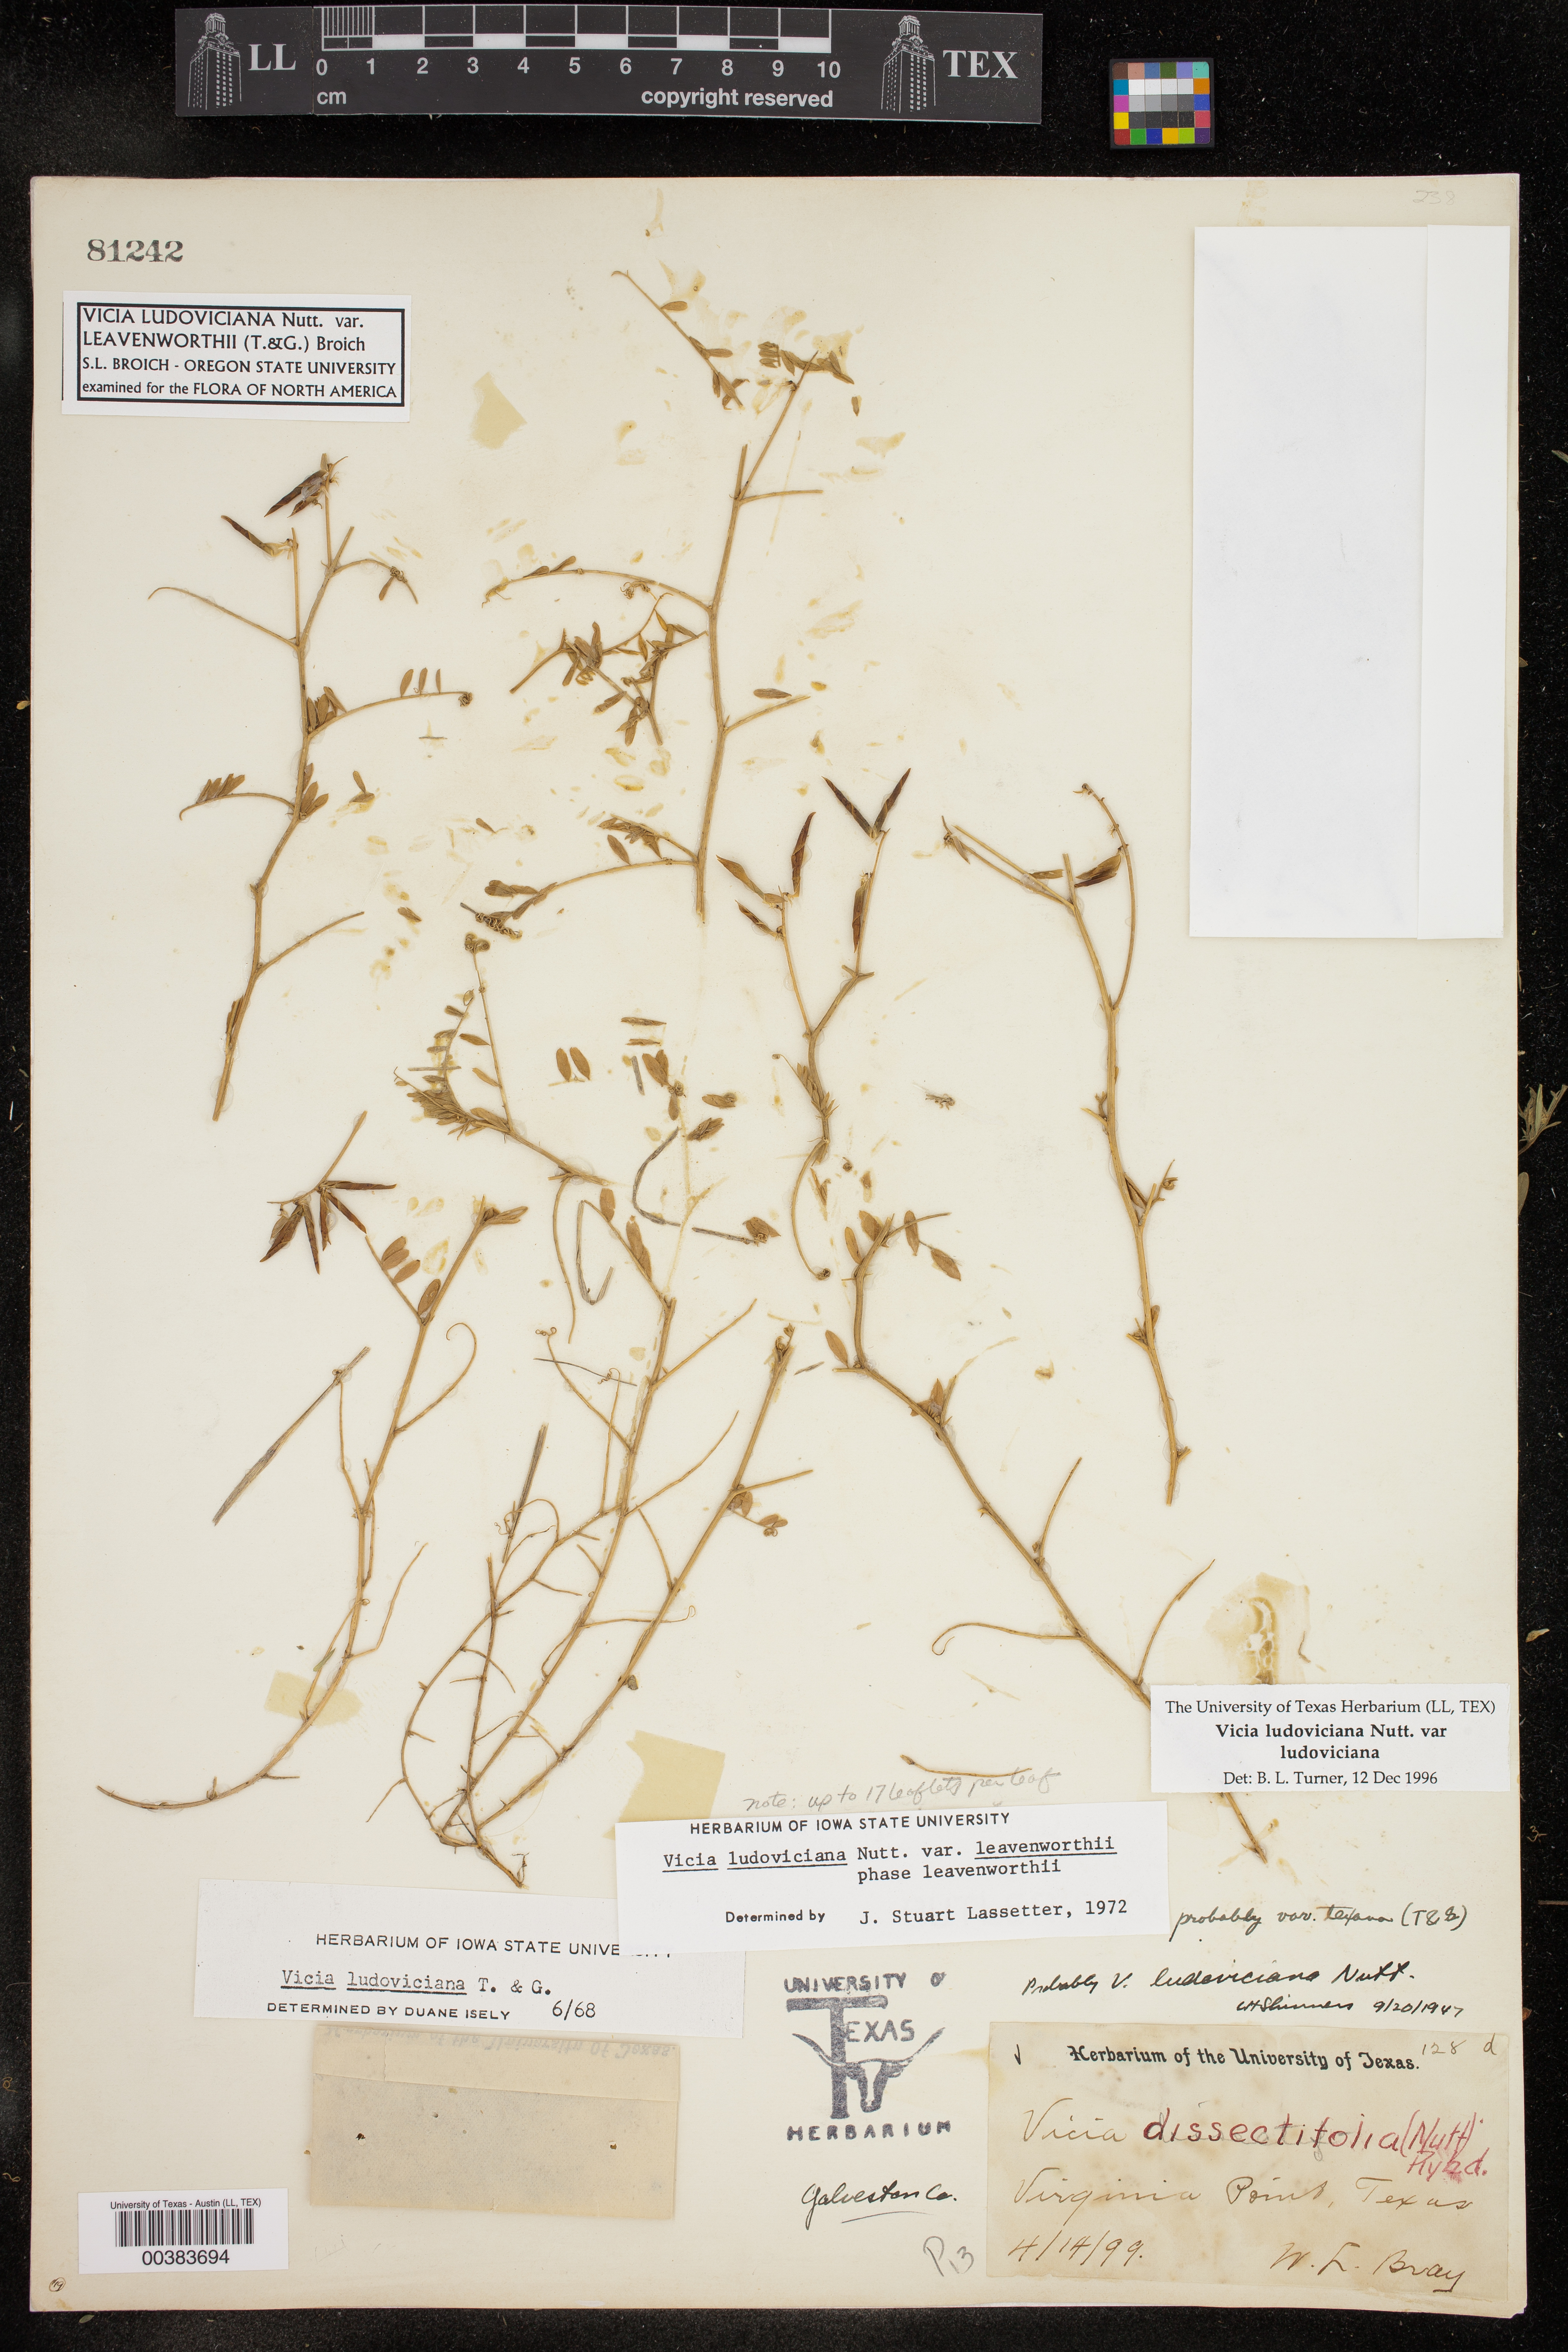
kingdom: Plantae
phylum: Tracheophyta
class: Magnoliopsida
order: Fabales
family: Fabaceae
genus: Vicia
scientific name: Vicia ludoviciana
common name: Louisiana vetch
